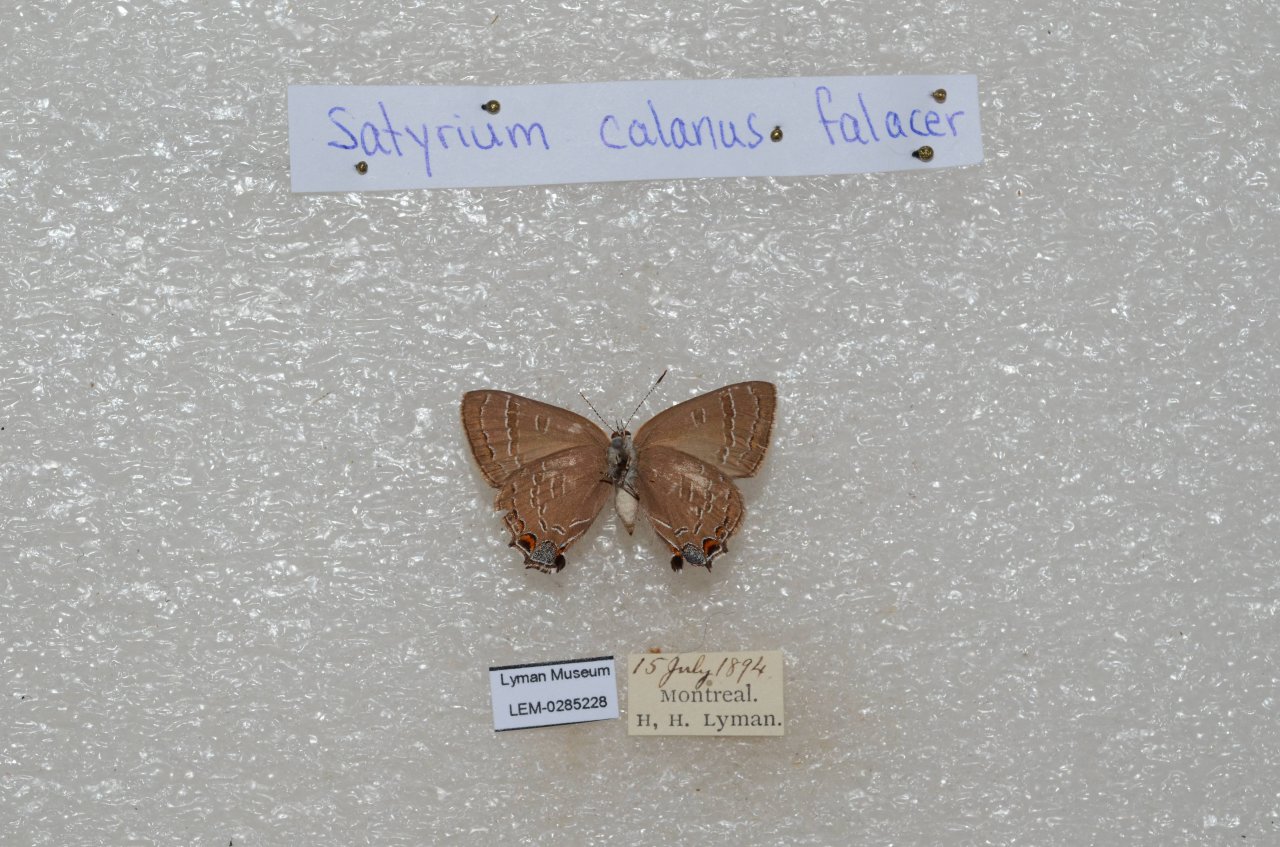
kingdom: Animalia
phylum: Arthropoda
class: Insecta
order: Lepidoptera
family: Lycaenidae
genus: Satyrium
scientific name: Satyrium calanus
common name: Banded Hairstreak
